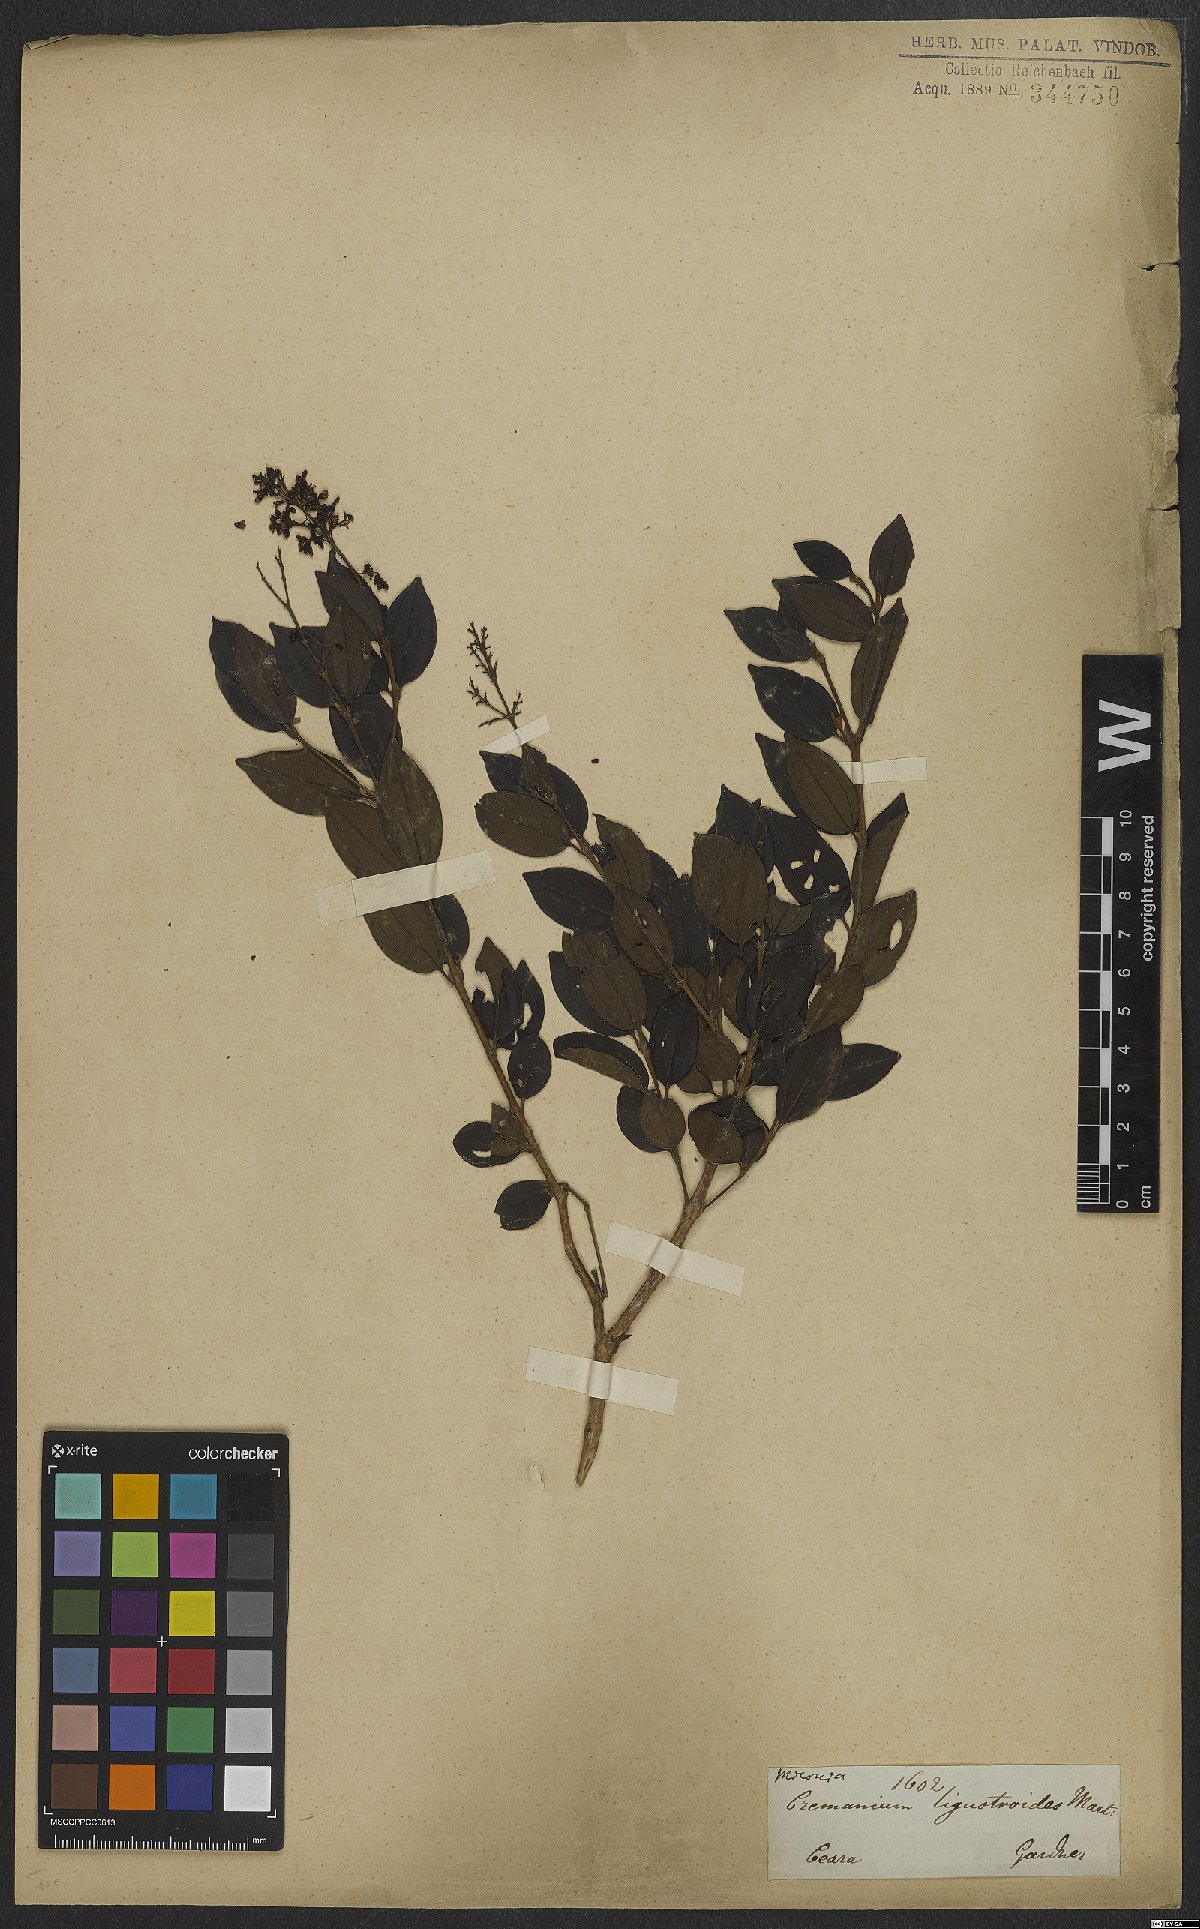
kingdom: Plantae
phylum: Tracheophyta
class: Magnoliopsida
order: Myrtales
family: Melastomataceae
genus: Miconia
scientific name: Miconia ligustroides
